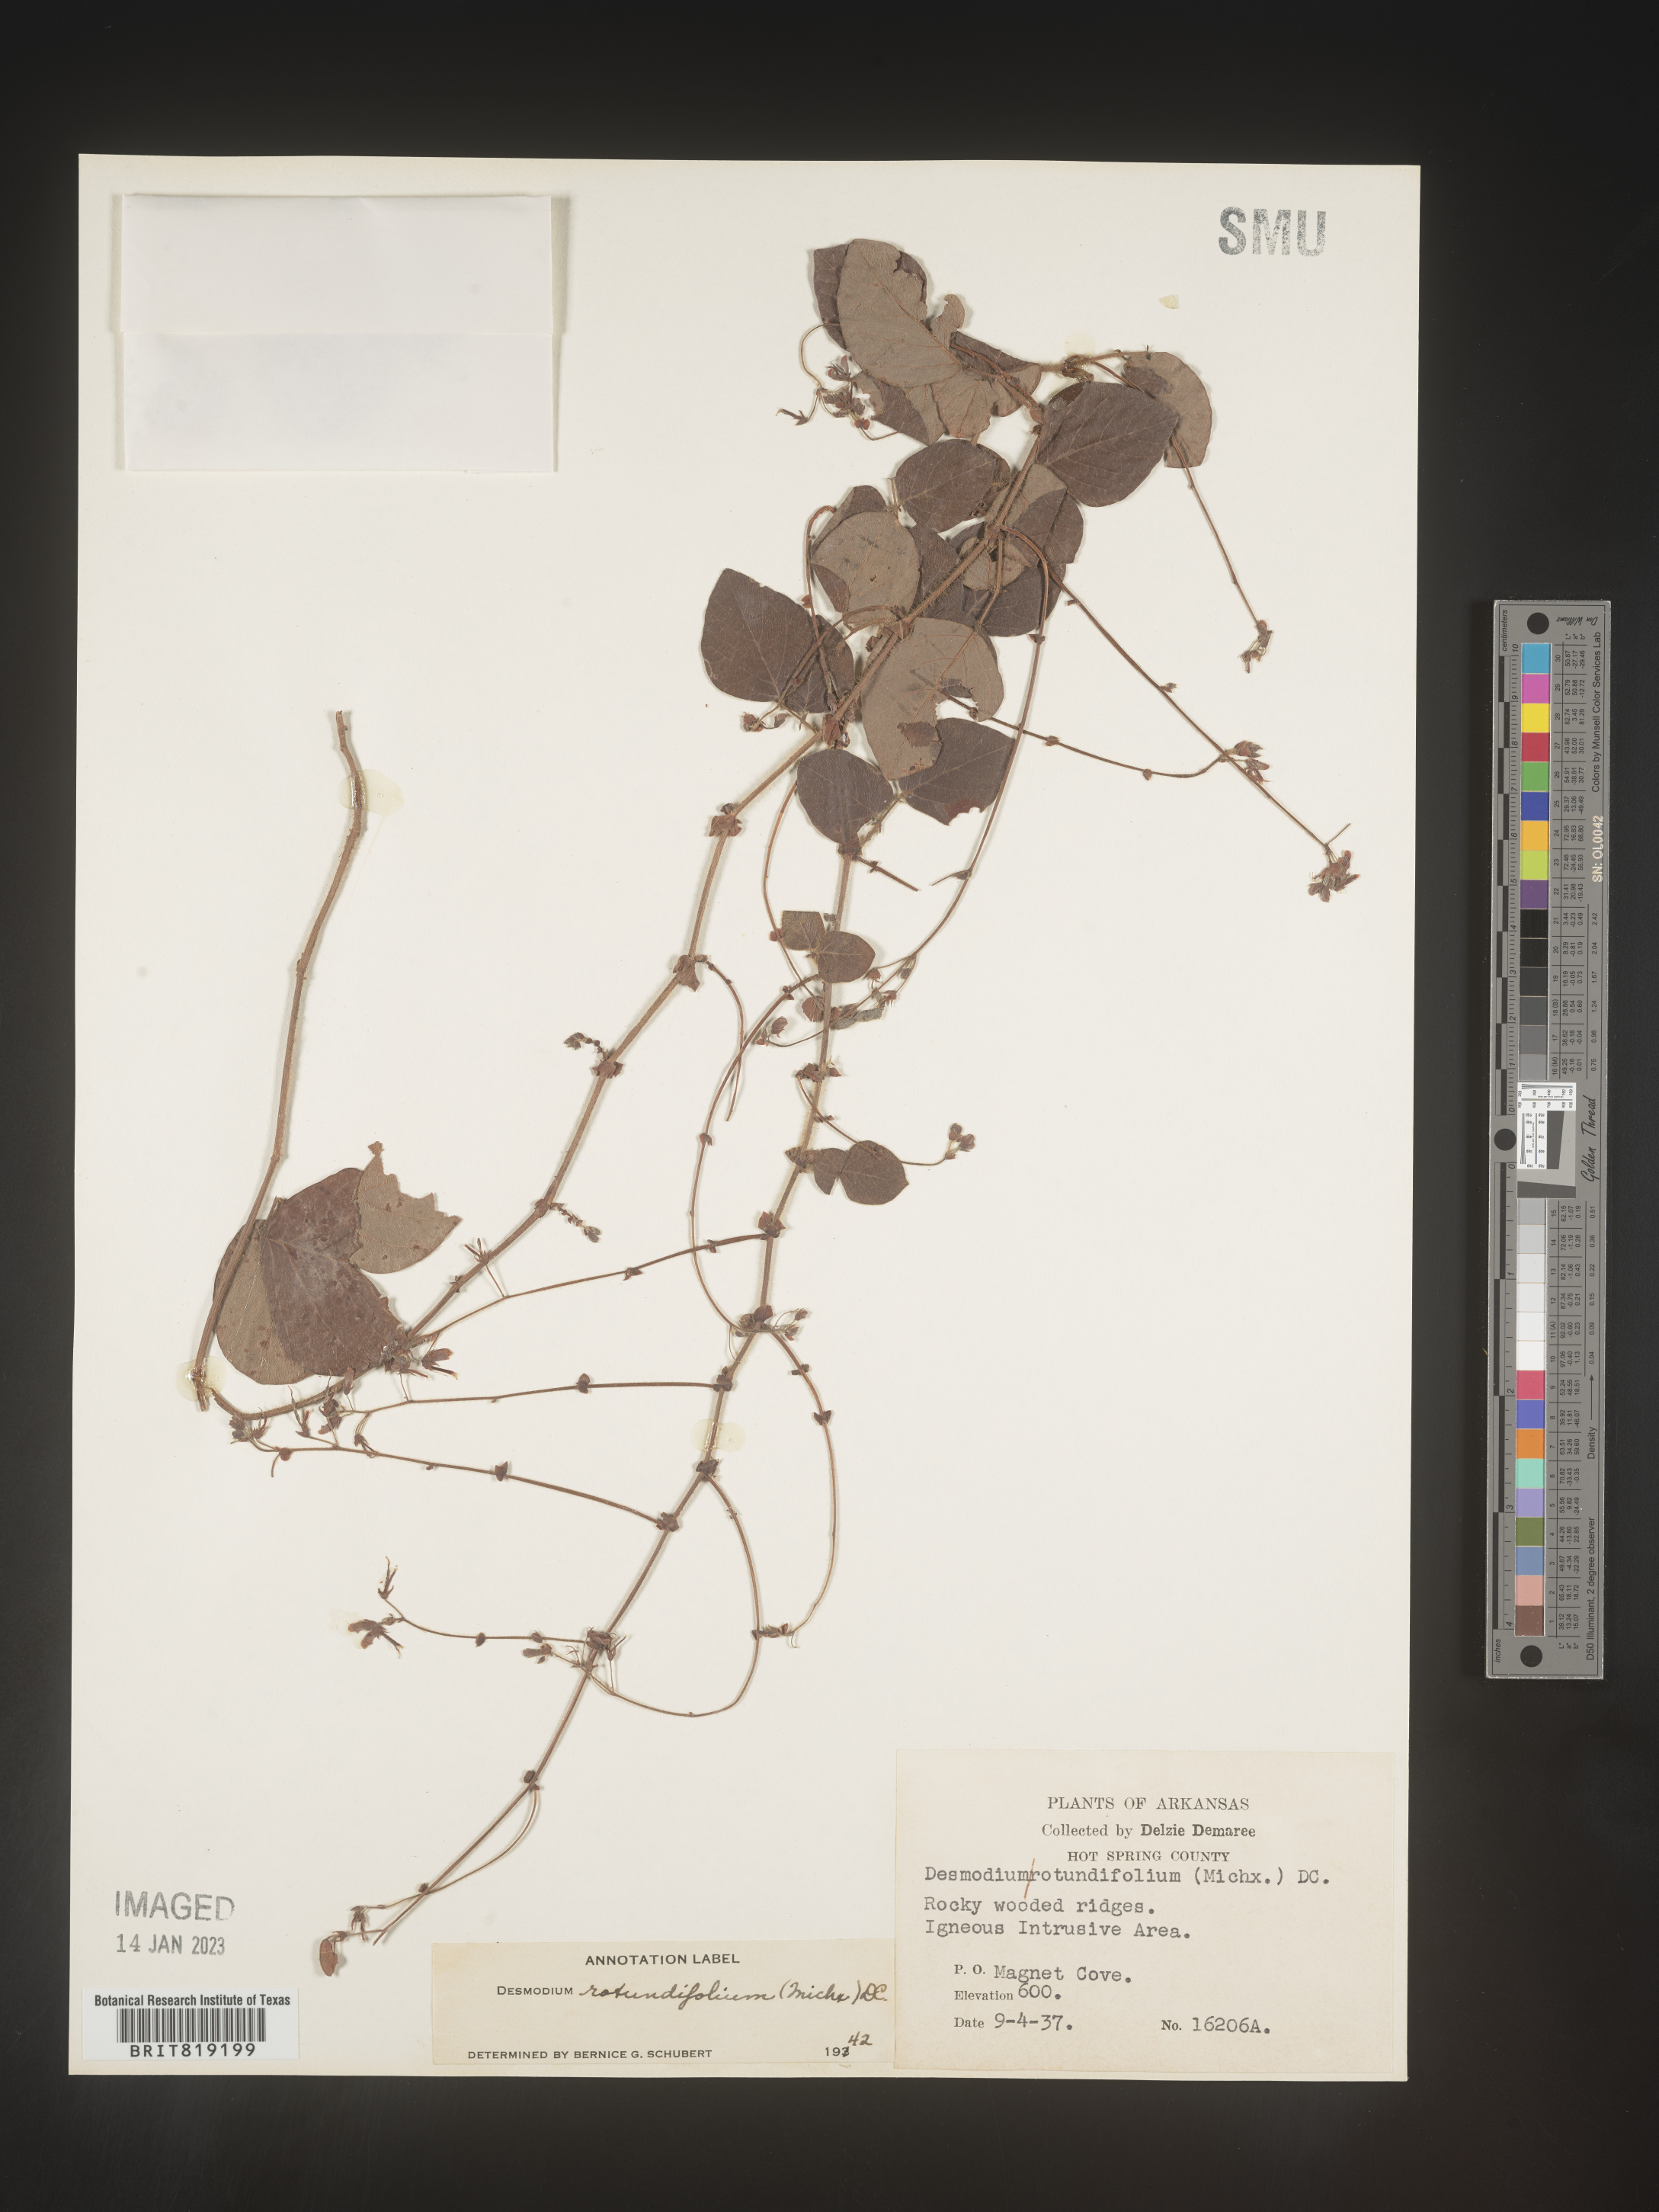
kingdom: Plantae
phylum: Tracheophyta
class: Magnoliopsida
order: Fabales
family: Fabaceae
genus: Desmodium
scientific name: Desmodium rotundifolium
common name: Dollarleaf
